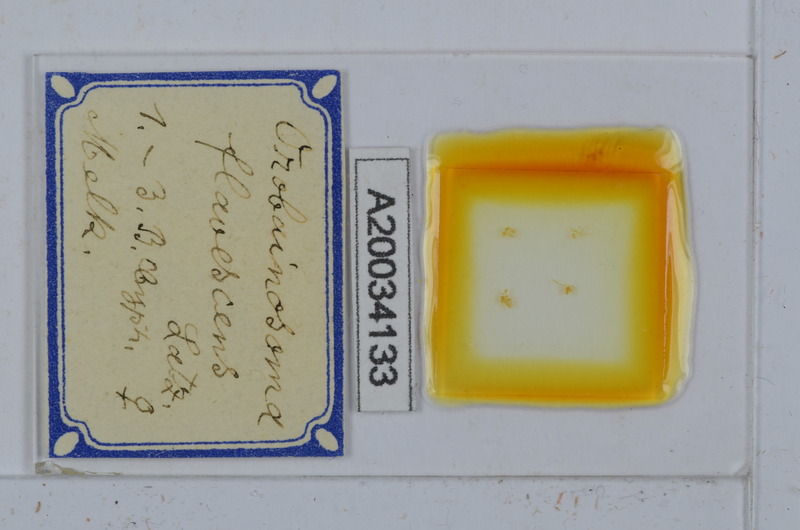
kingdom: Animalia
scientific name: Animalia
